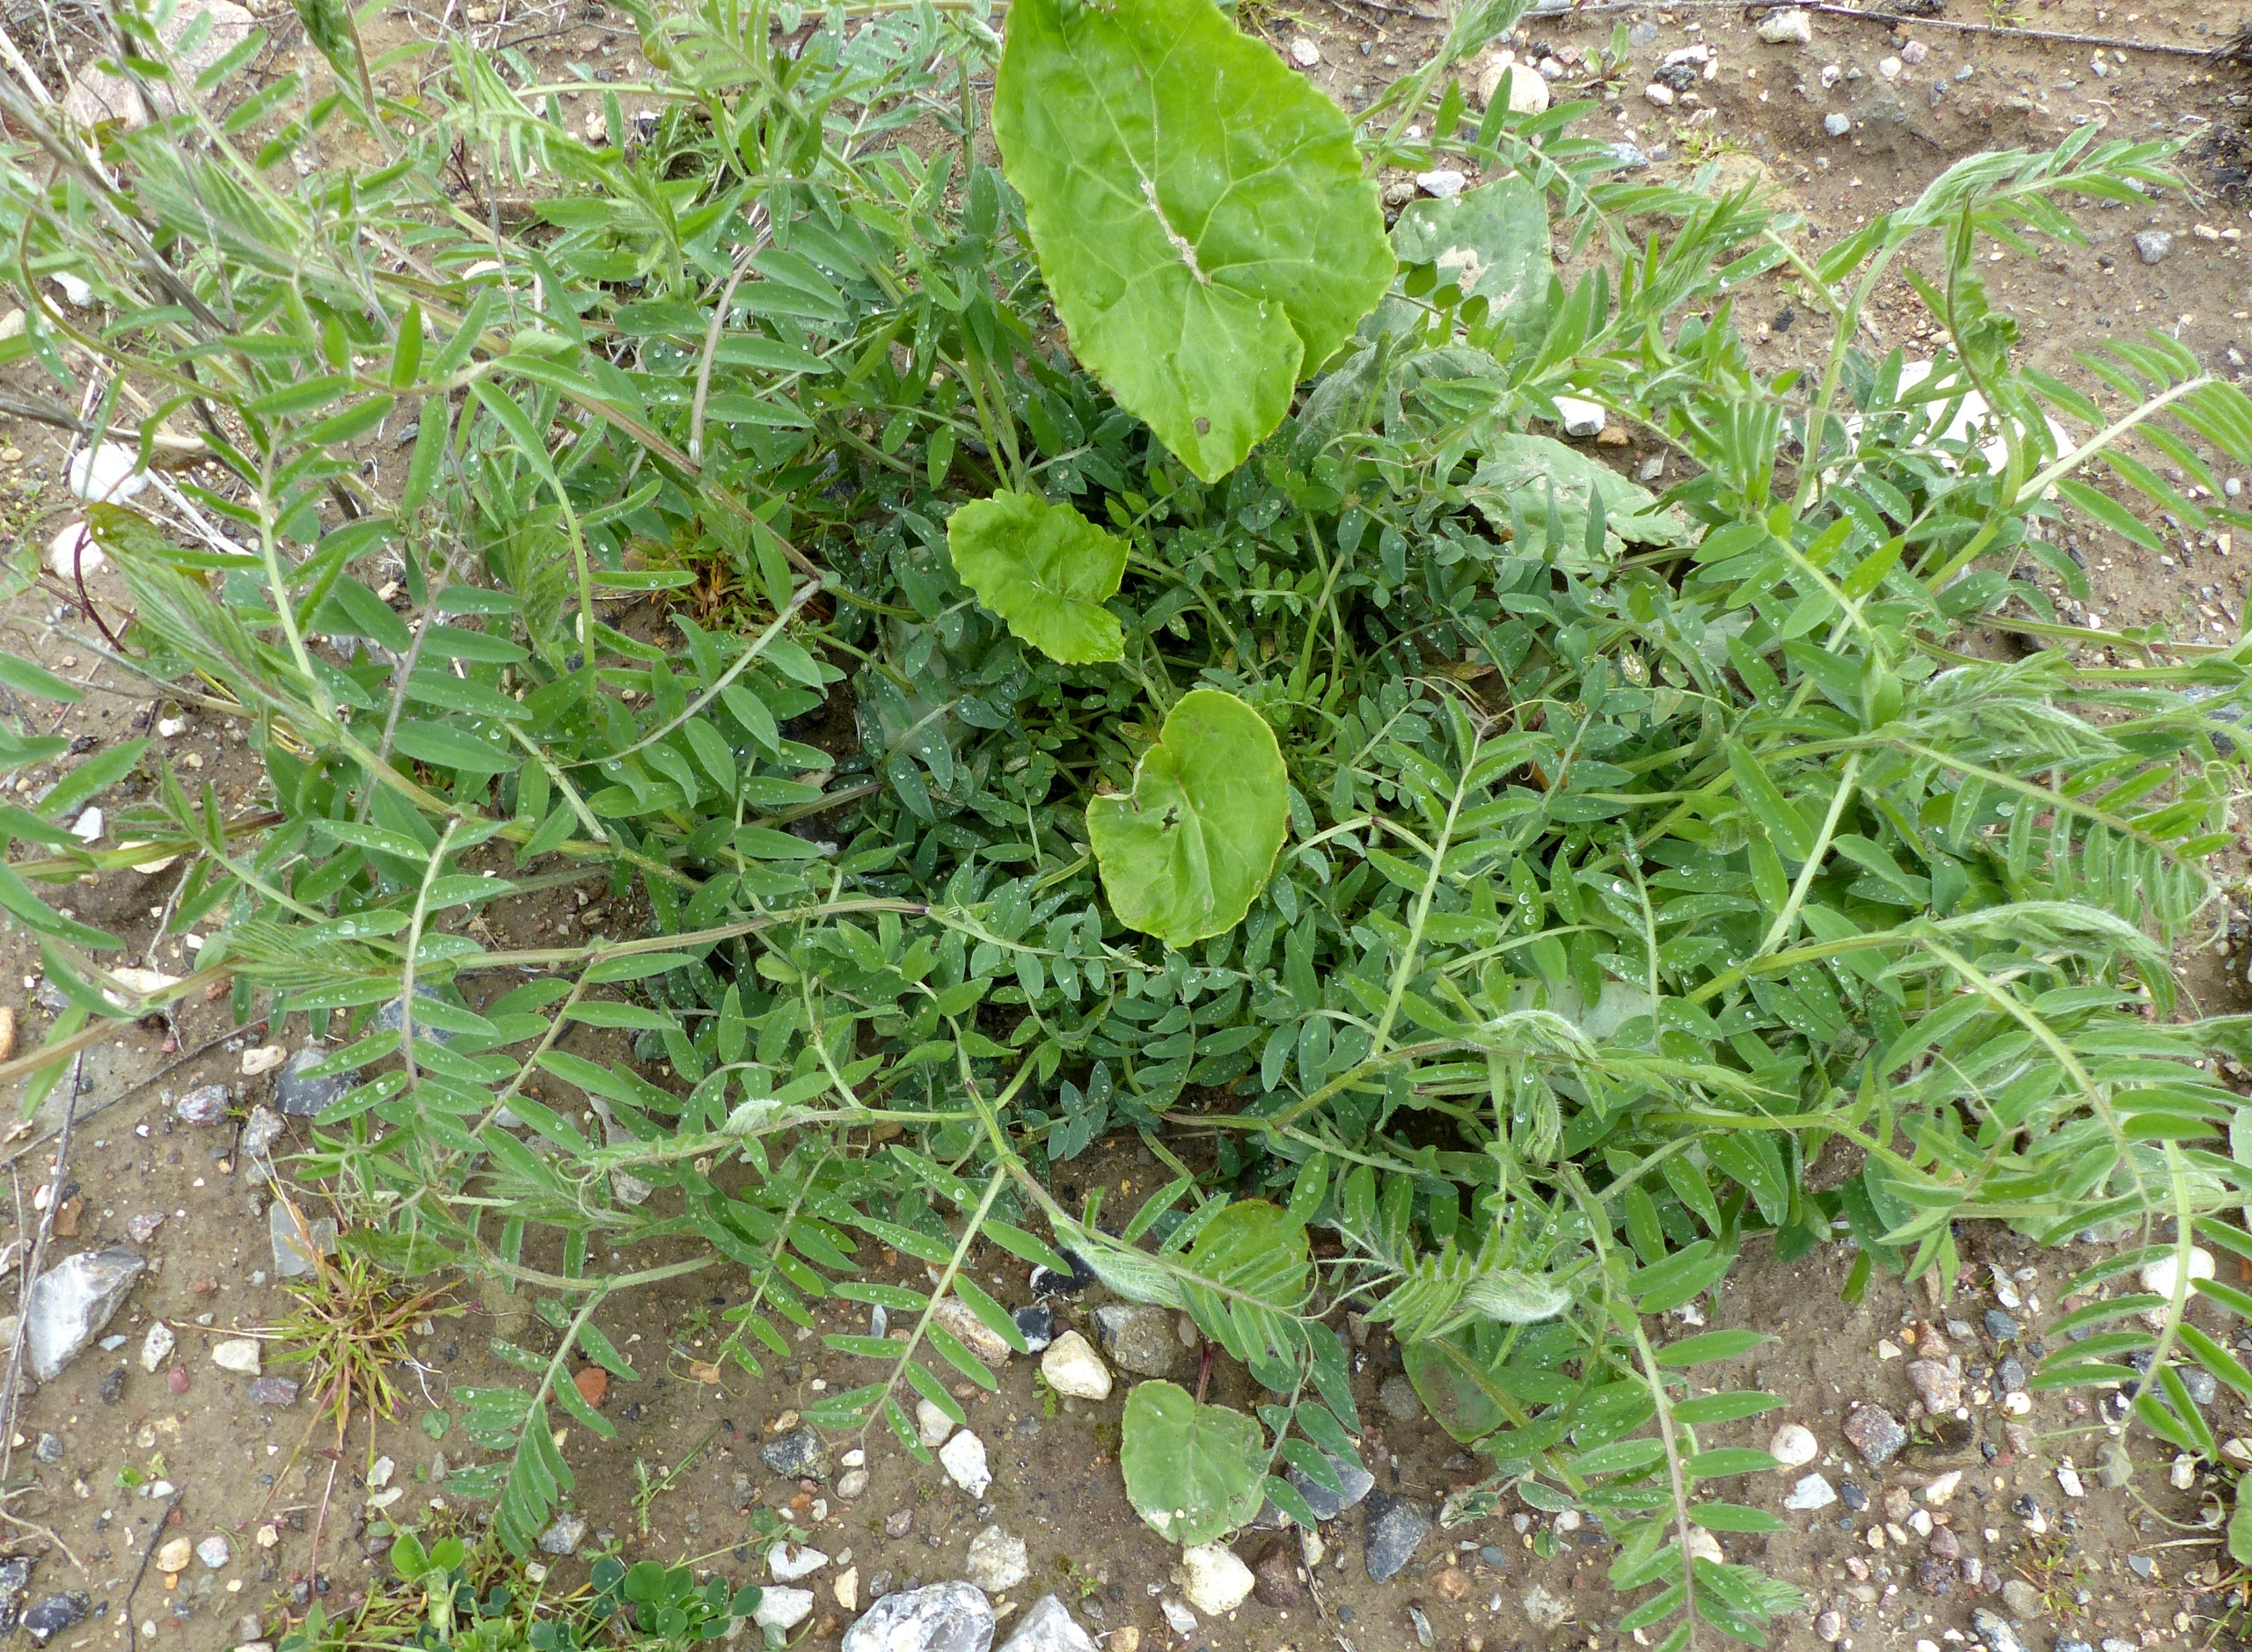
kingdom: Plantae
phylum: Tracheophyta
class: Magnoliopsida
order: Fabales
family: Fabaceae
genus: Vicia
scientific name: Vicia villosa
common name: Sand-vikke
